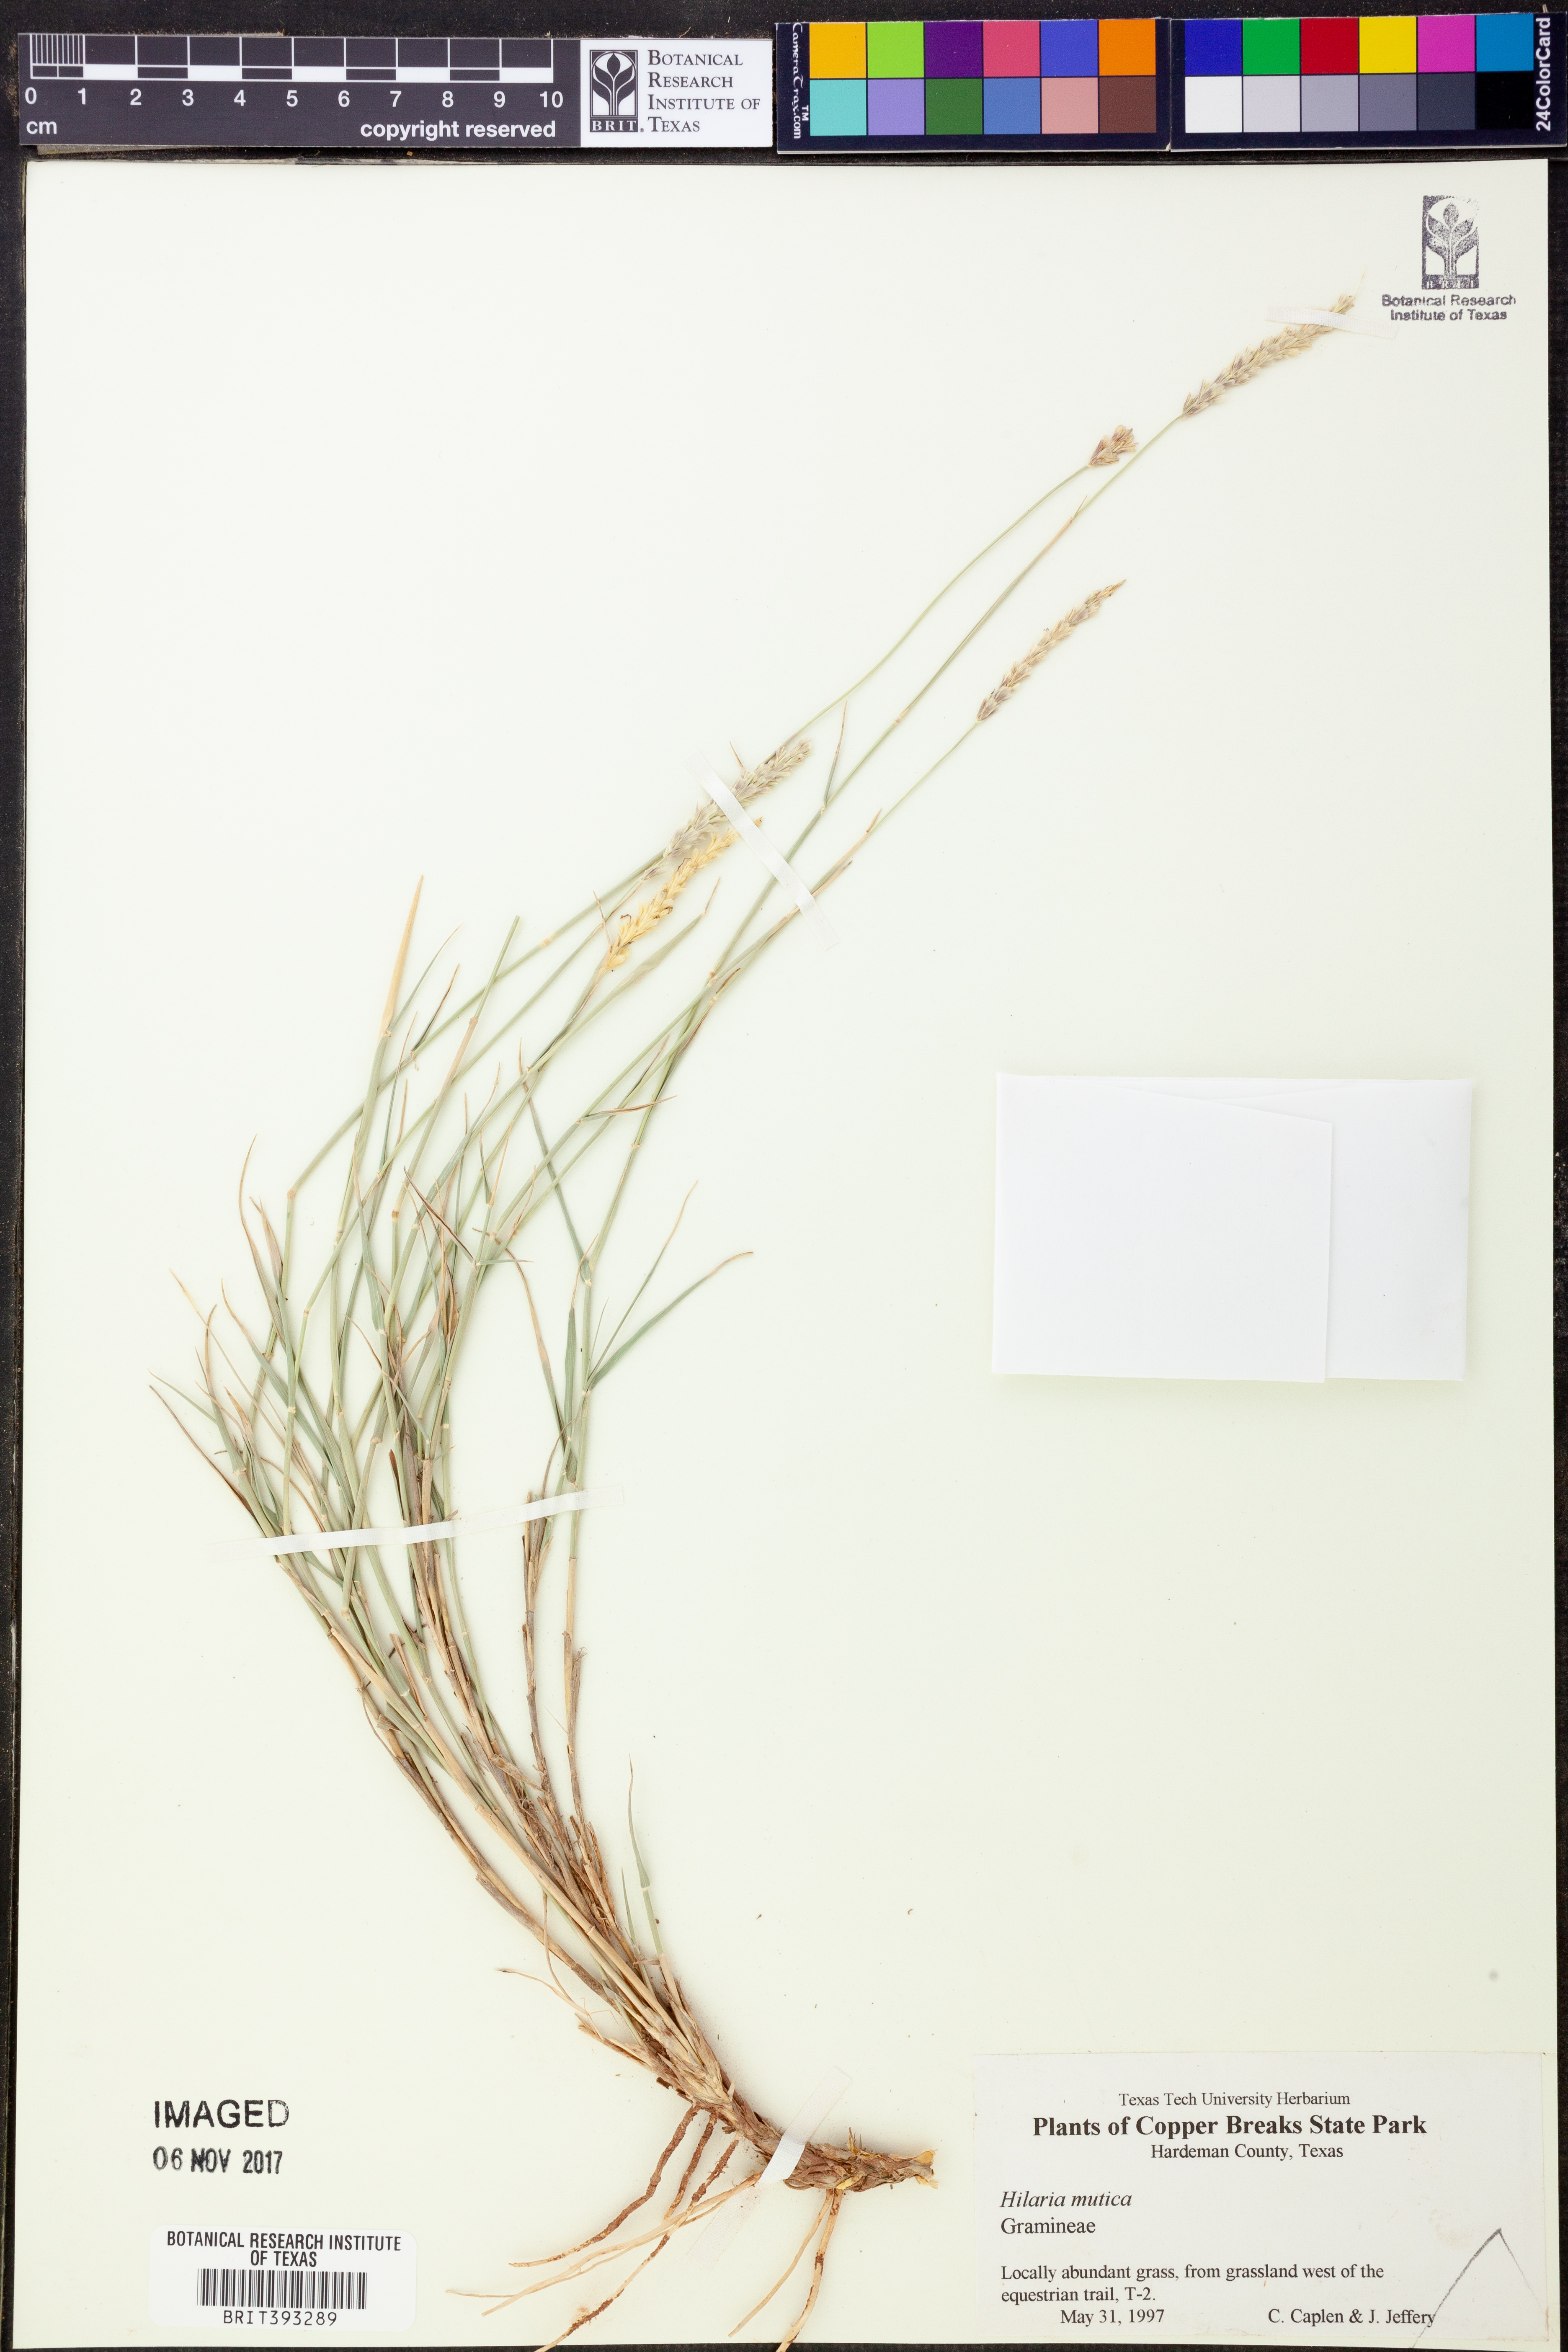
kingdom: Plantae
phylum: Tracheophyta
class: Liliopsida
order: Poales
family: Poaceae
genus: Hilaria
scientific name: Hilaria mutica
